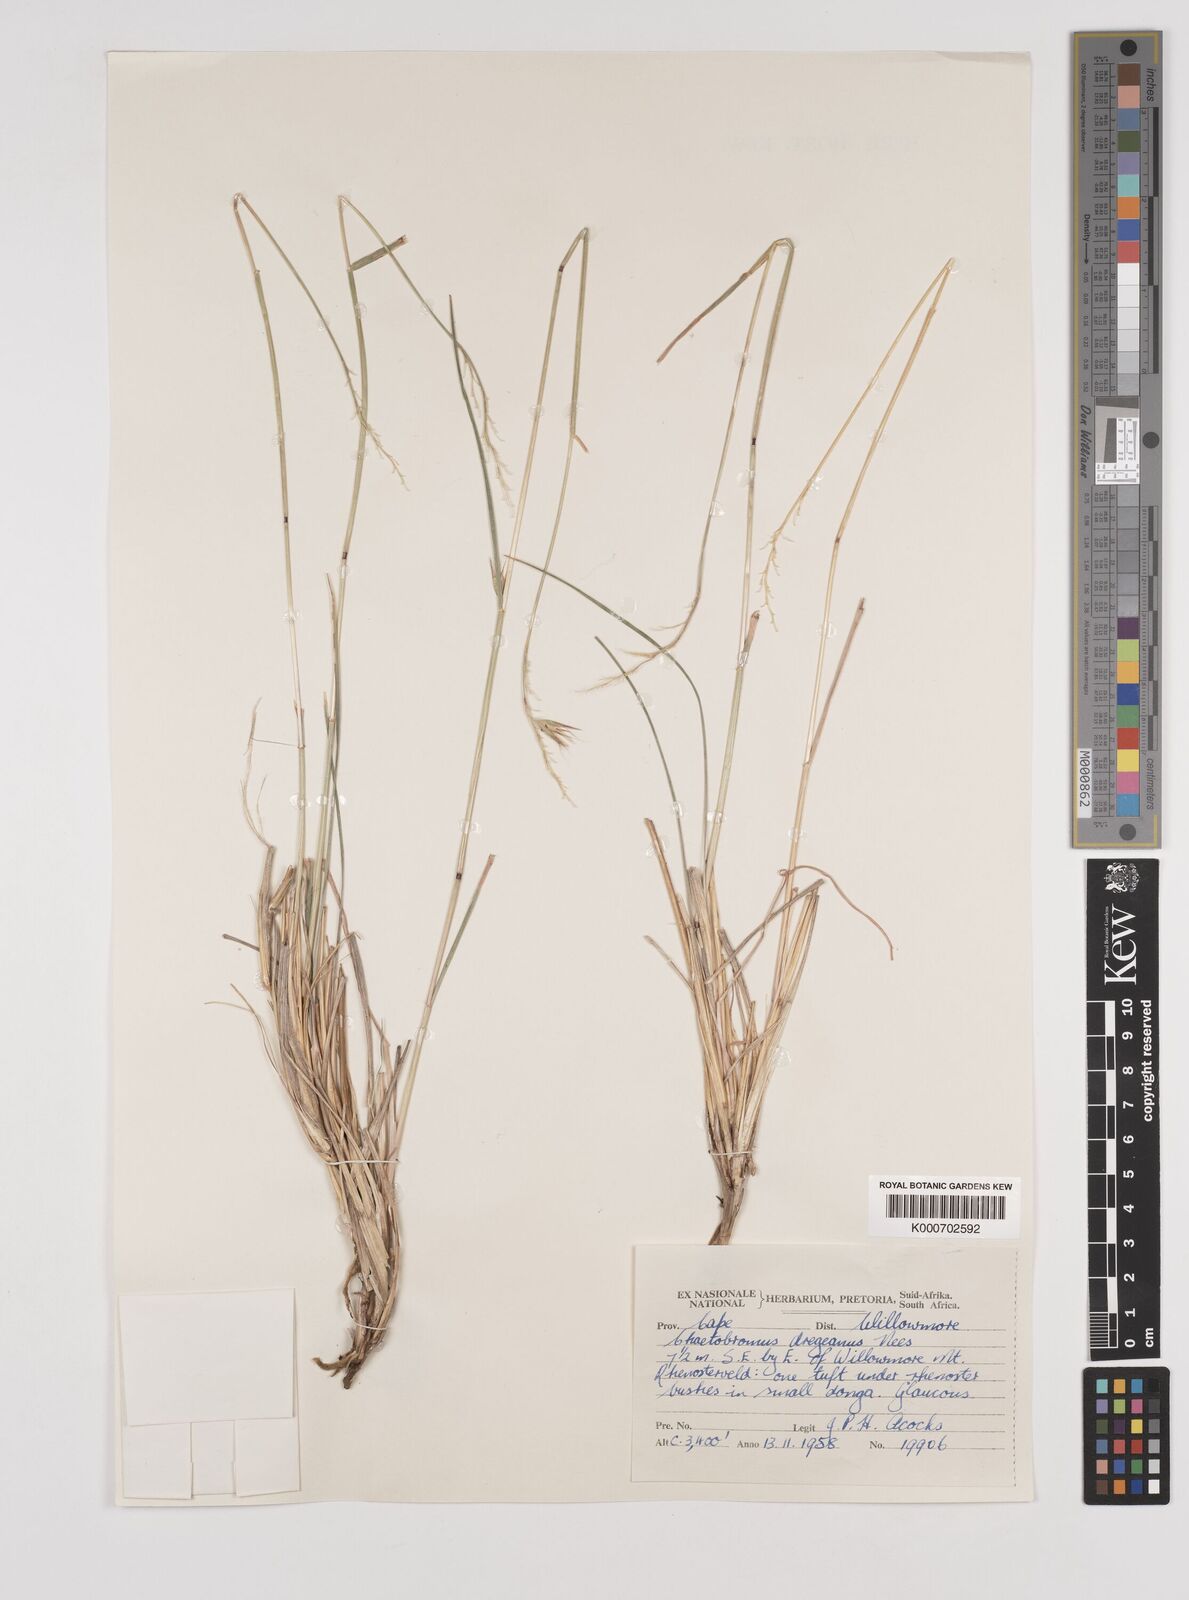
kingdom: Plantae
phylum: Tracheophyta
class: Liliopsida
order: Poales
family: Poaceae
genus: Chaetobromus
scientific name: Chaetobromus involucratus
